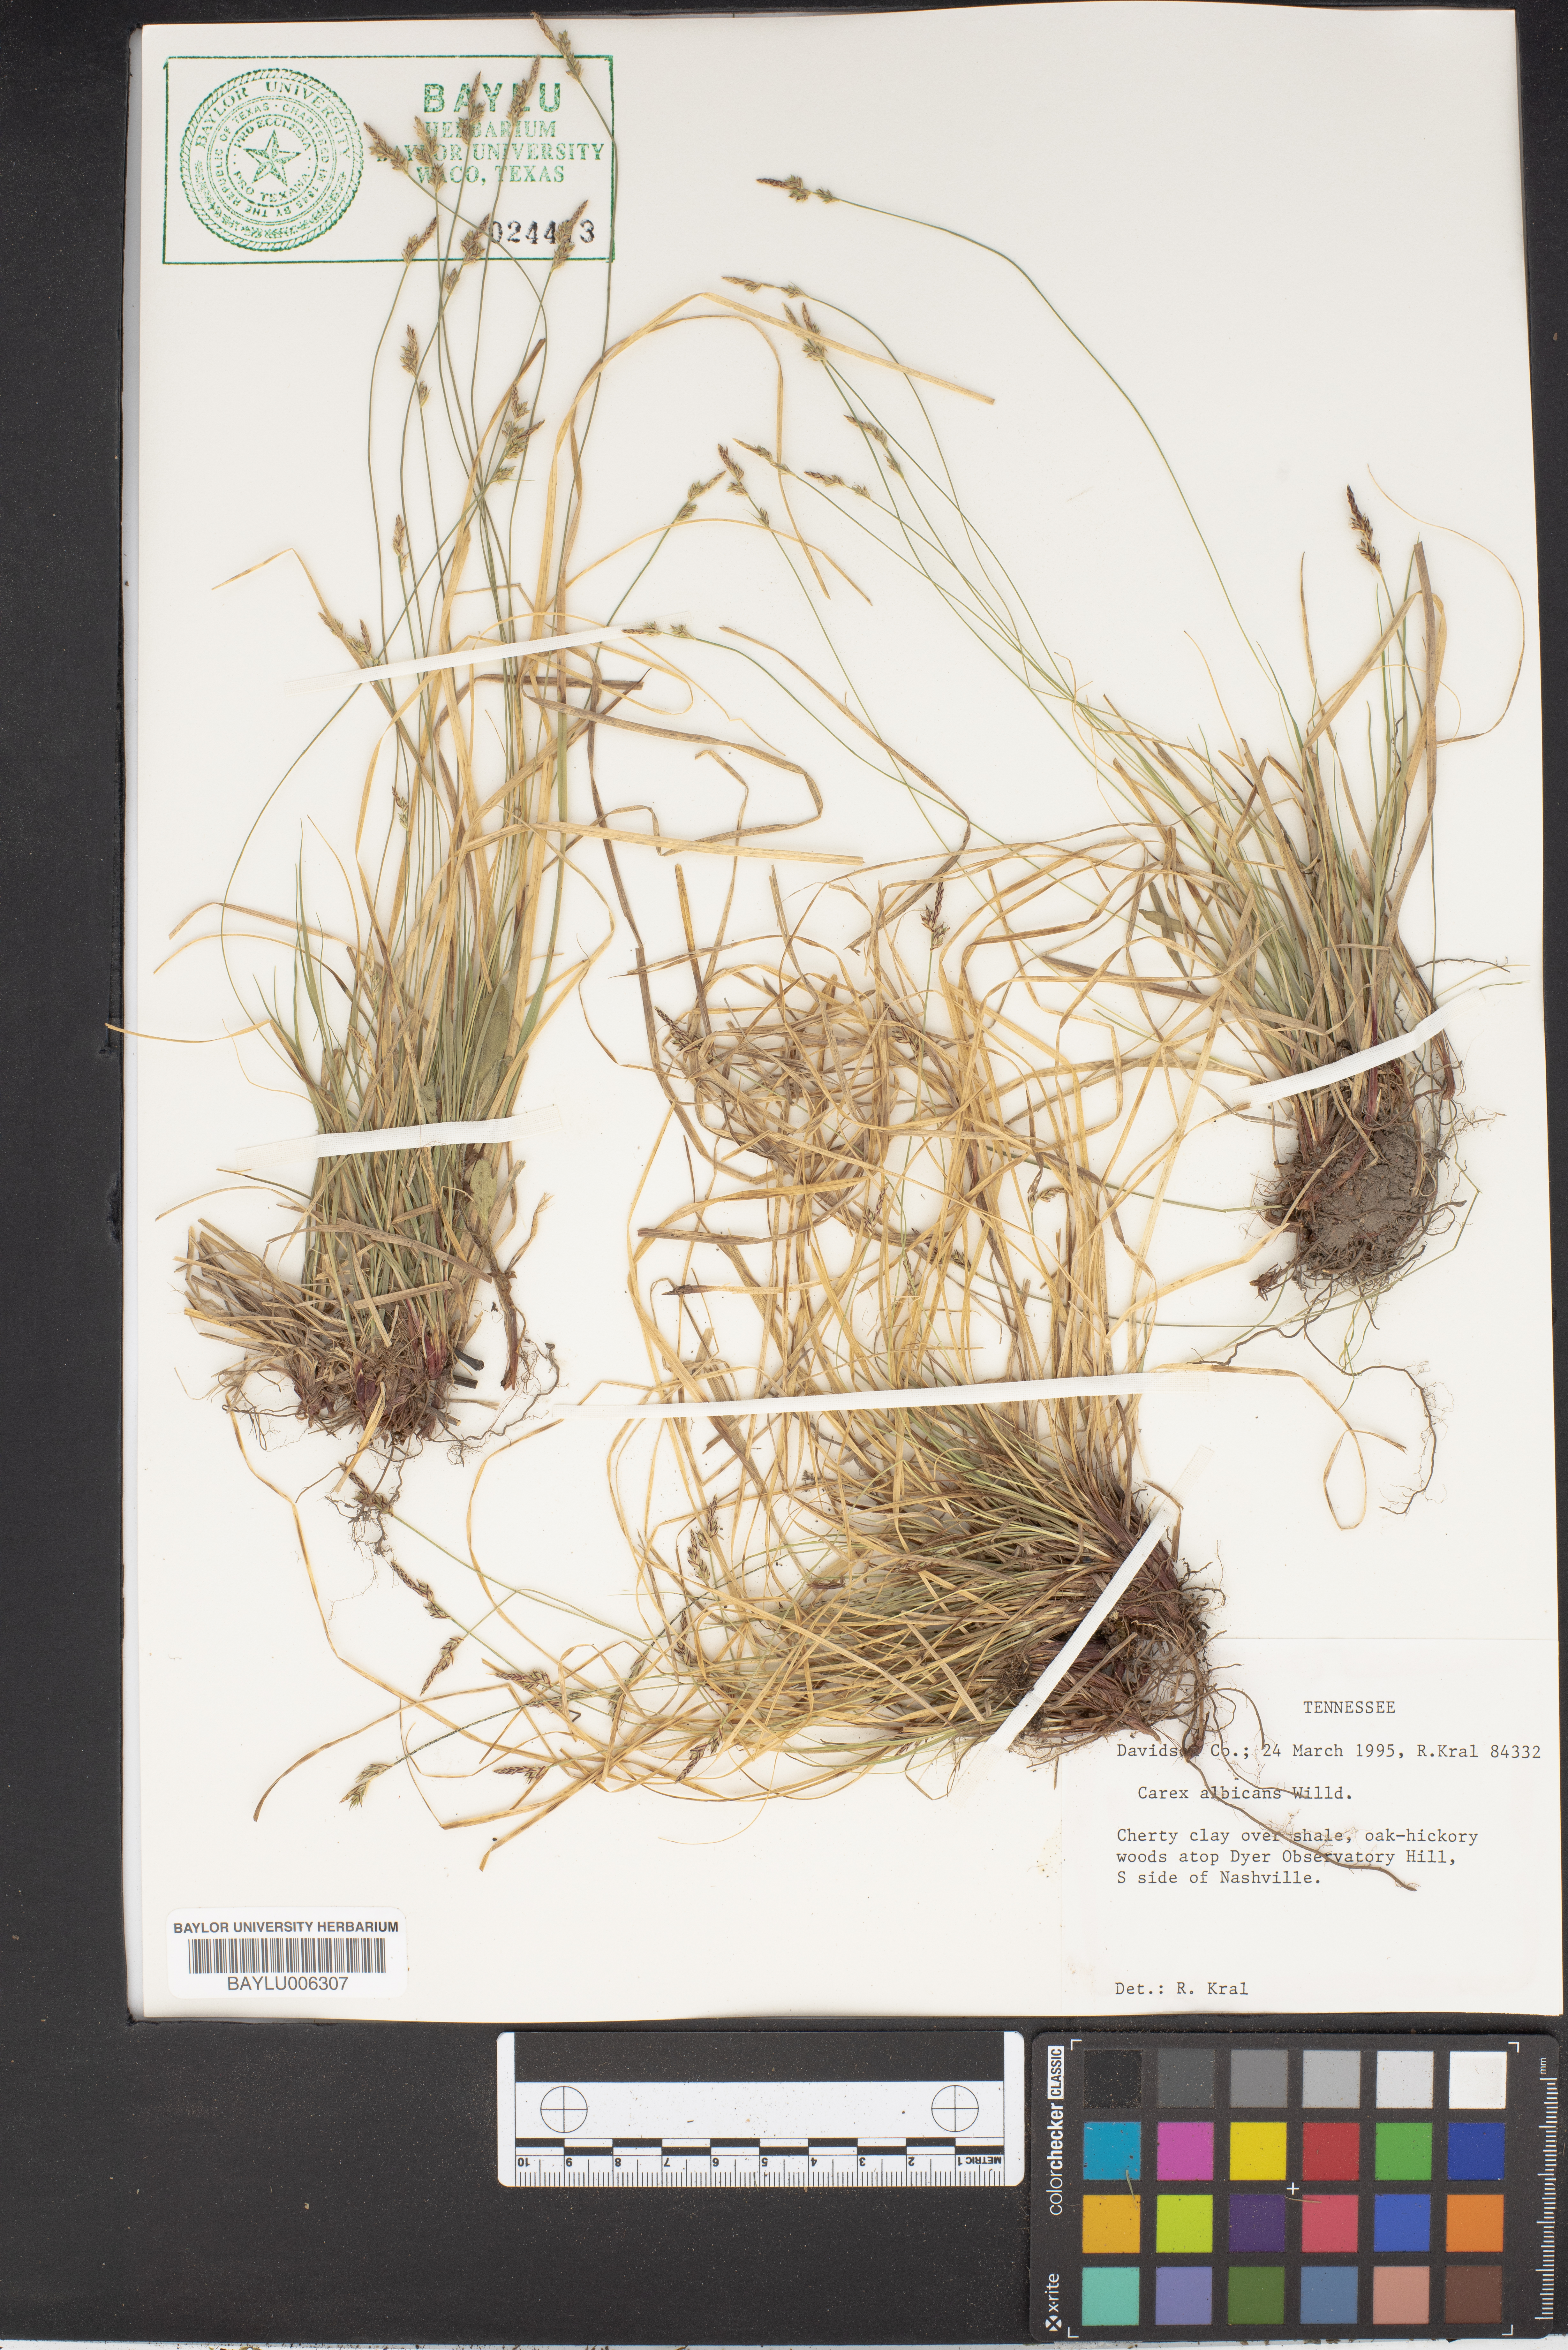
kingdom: Plantae
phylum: Tracheophyta
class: Liliopsida
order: Poales
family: Cyperaceae
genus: Carex
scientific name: Carex albicans
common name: Bellow-beaked sedge
